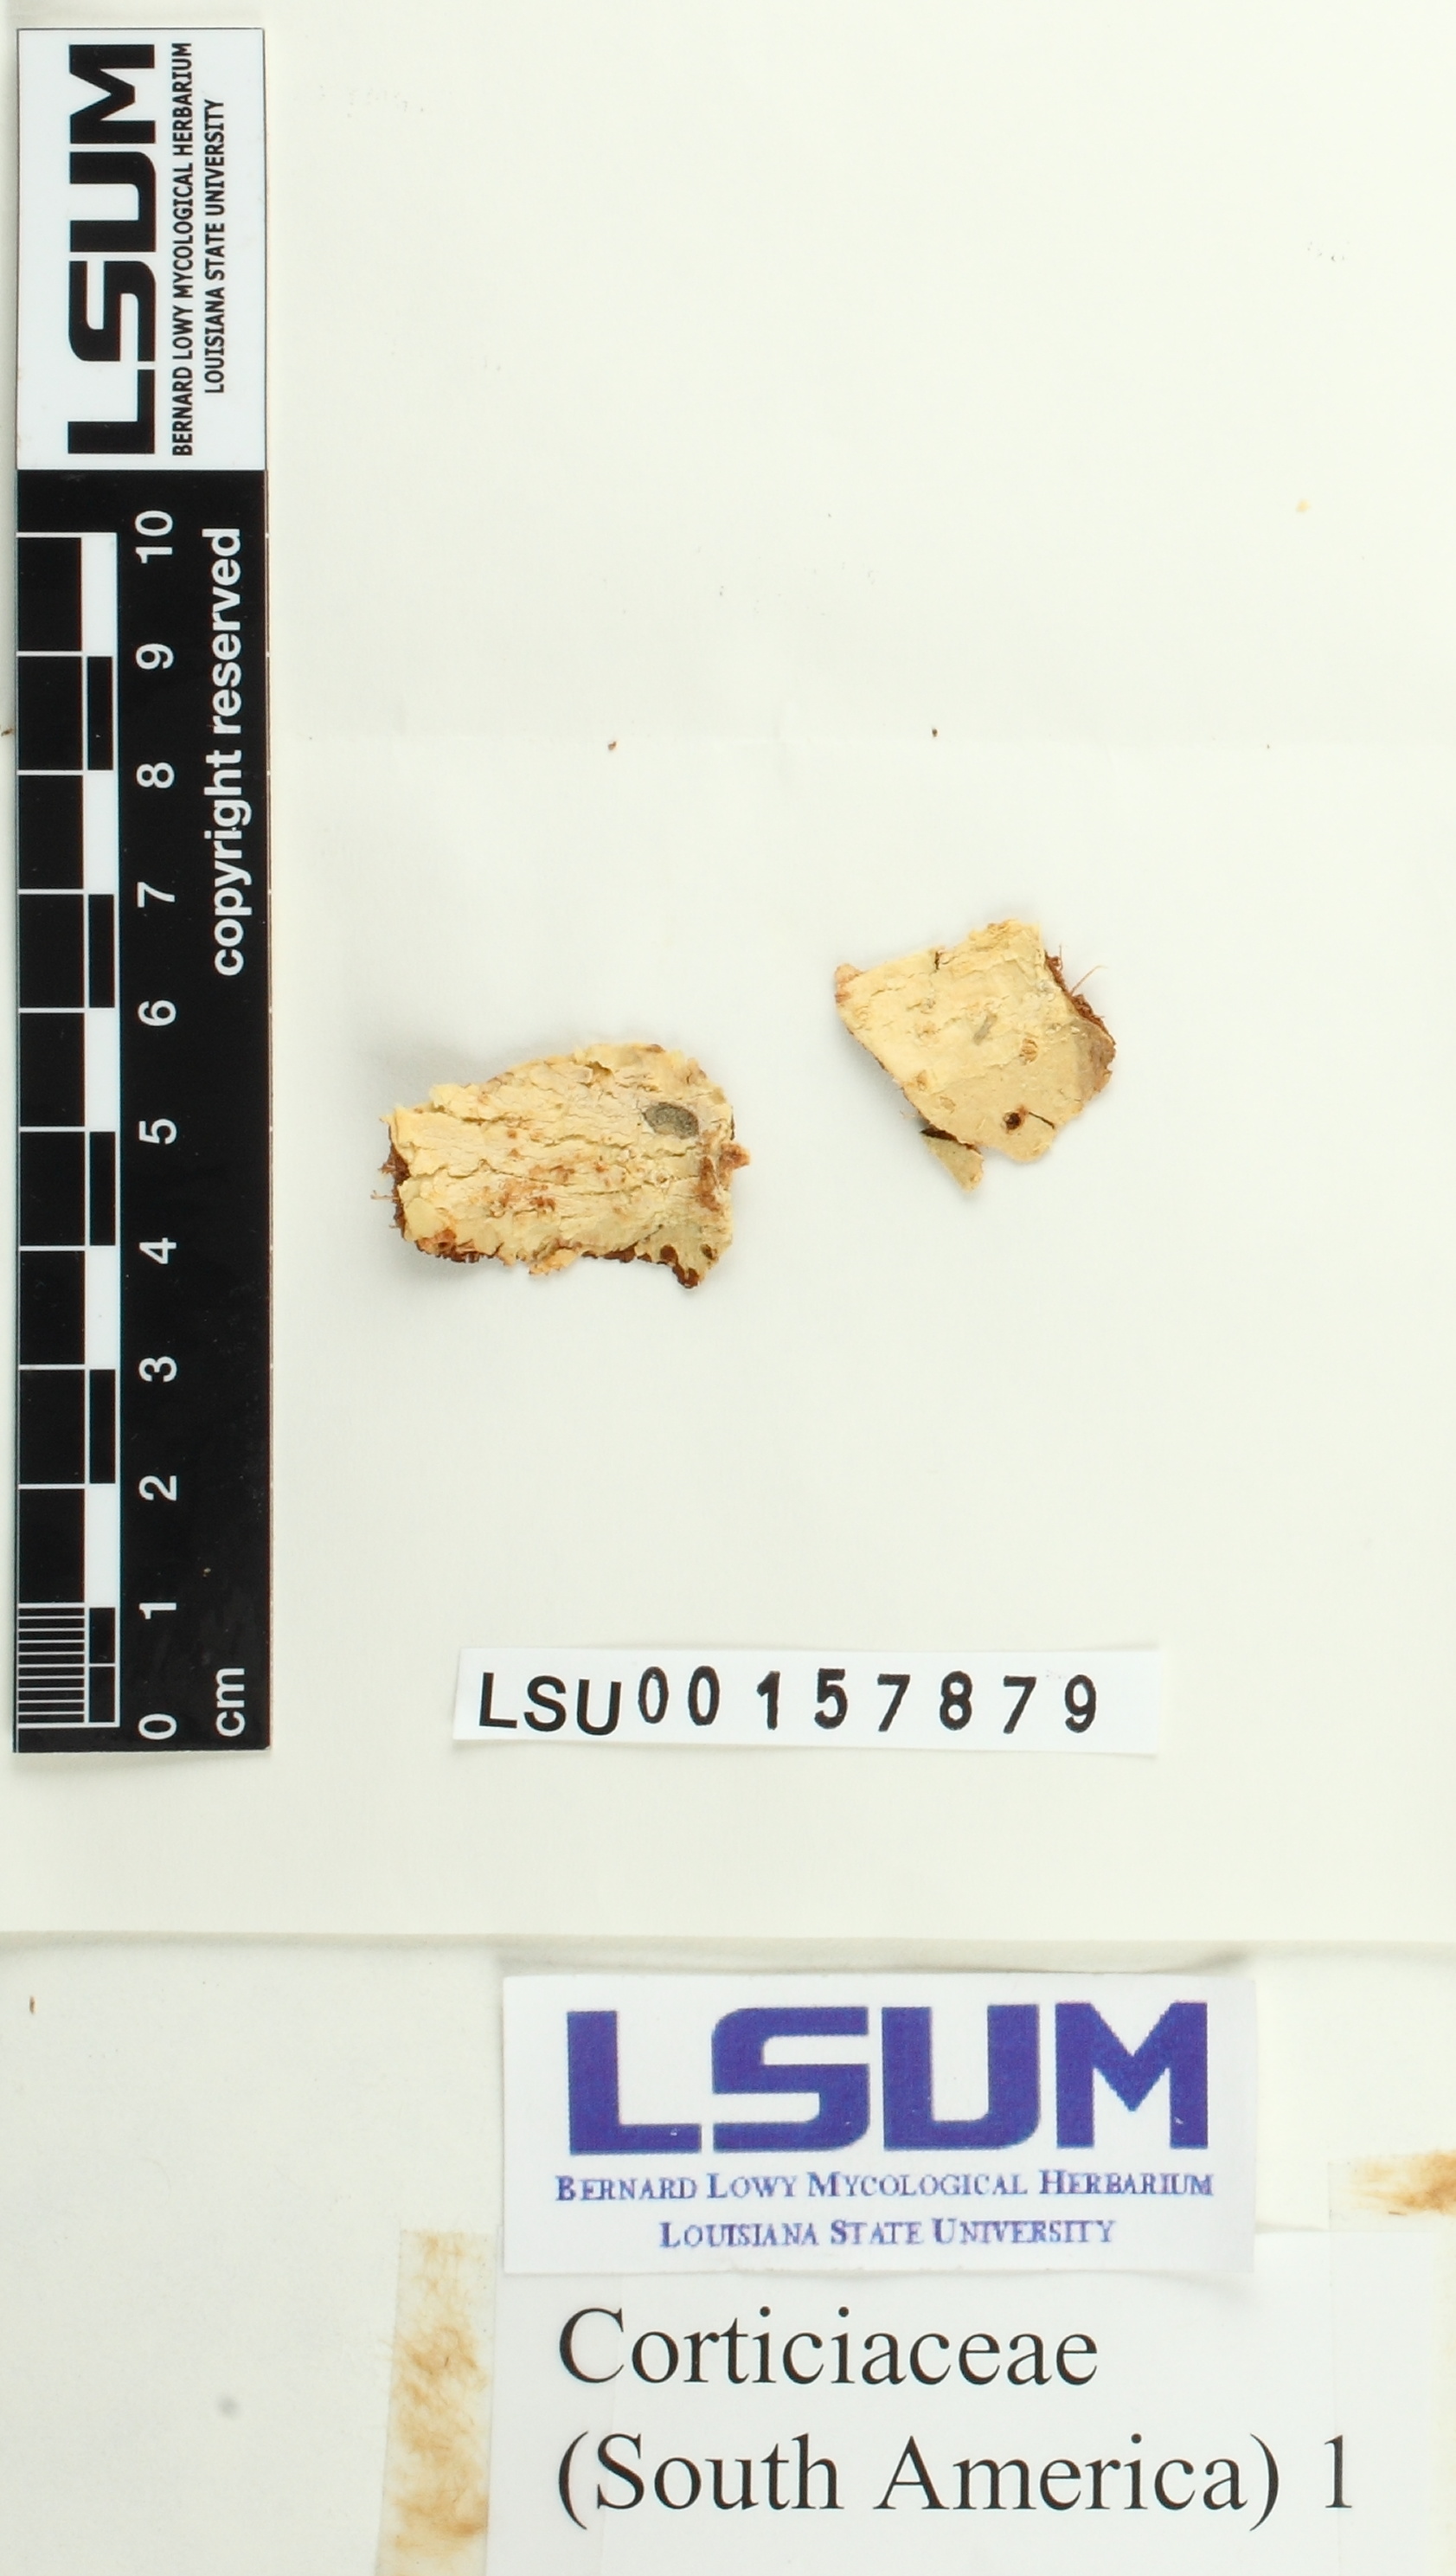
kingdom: Fungi
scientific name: Fungi
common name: Fungi
